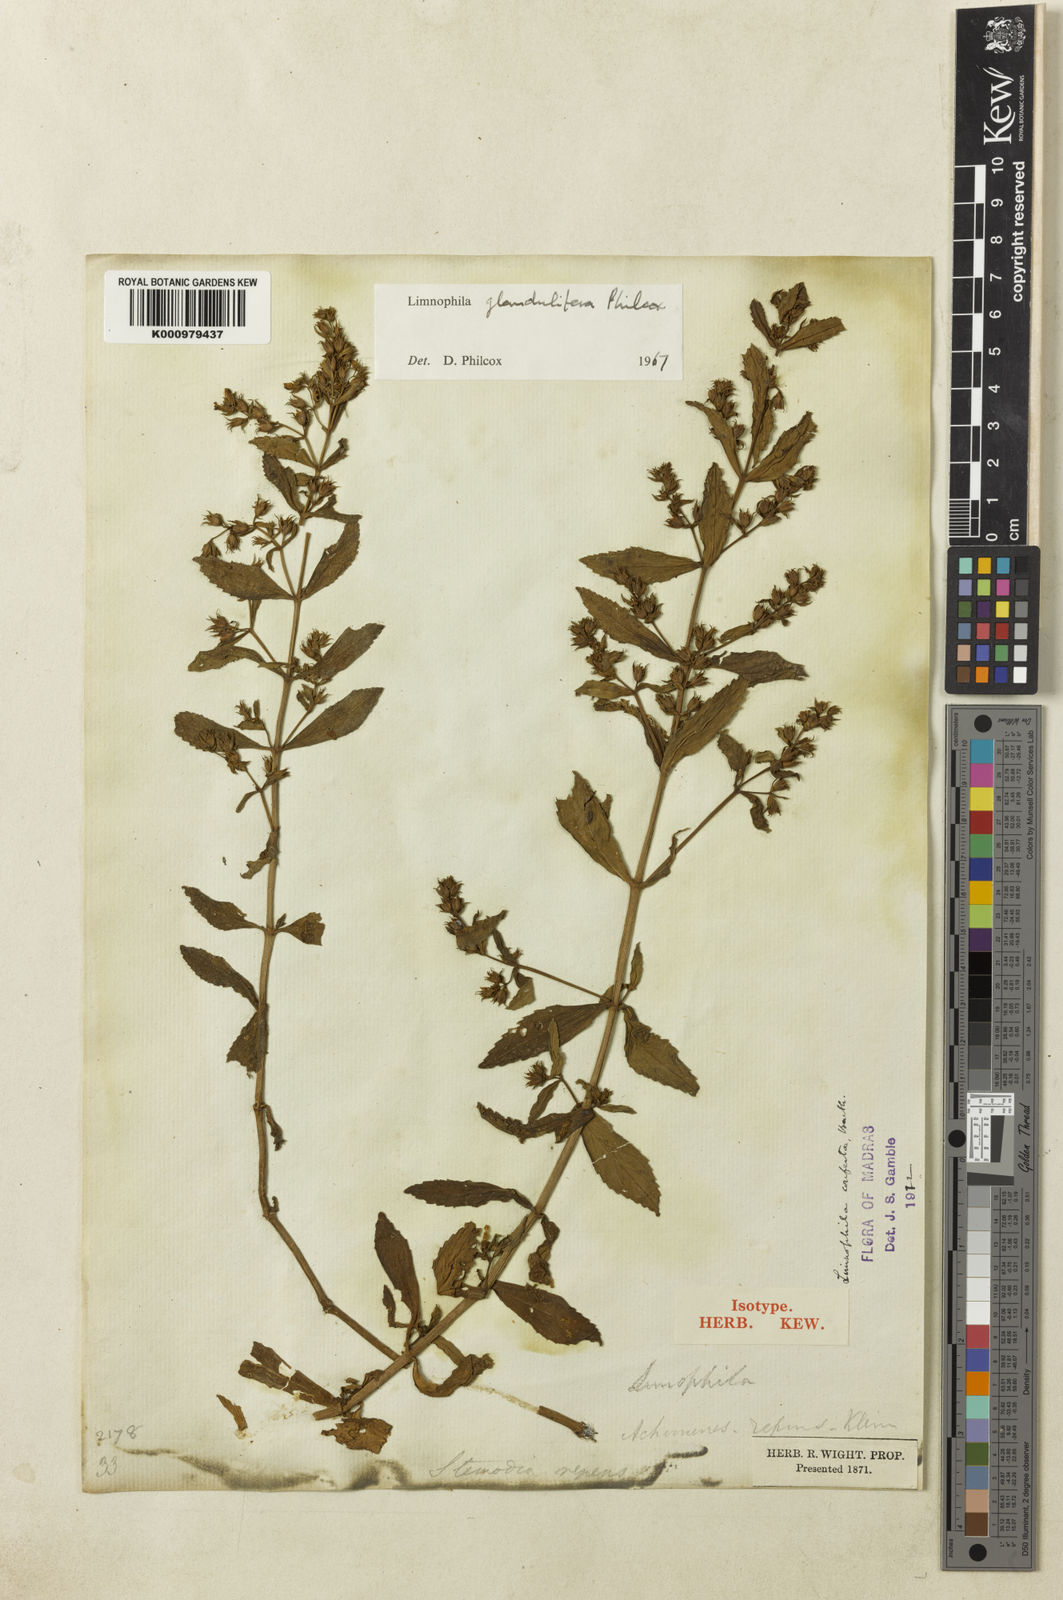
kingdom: Plantae
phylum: Tracheophyta
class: Magnoliopsida
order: Lamiales
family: Plantaginaceae
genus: Limnophila
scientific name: Limnophila glandulifera
